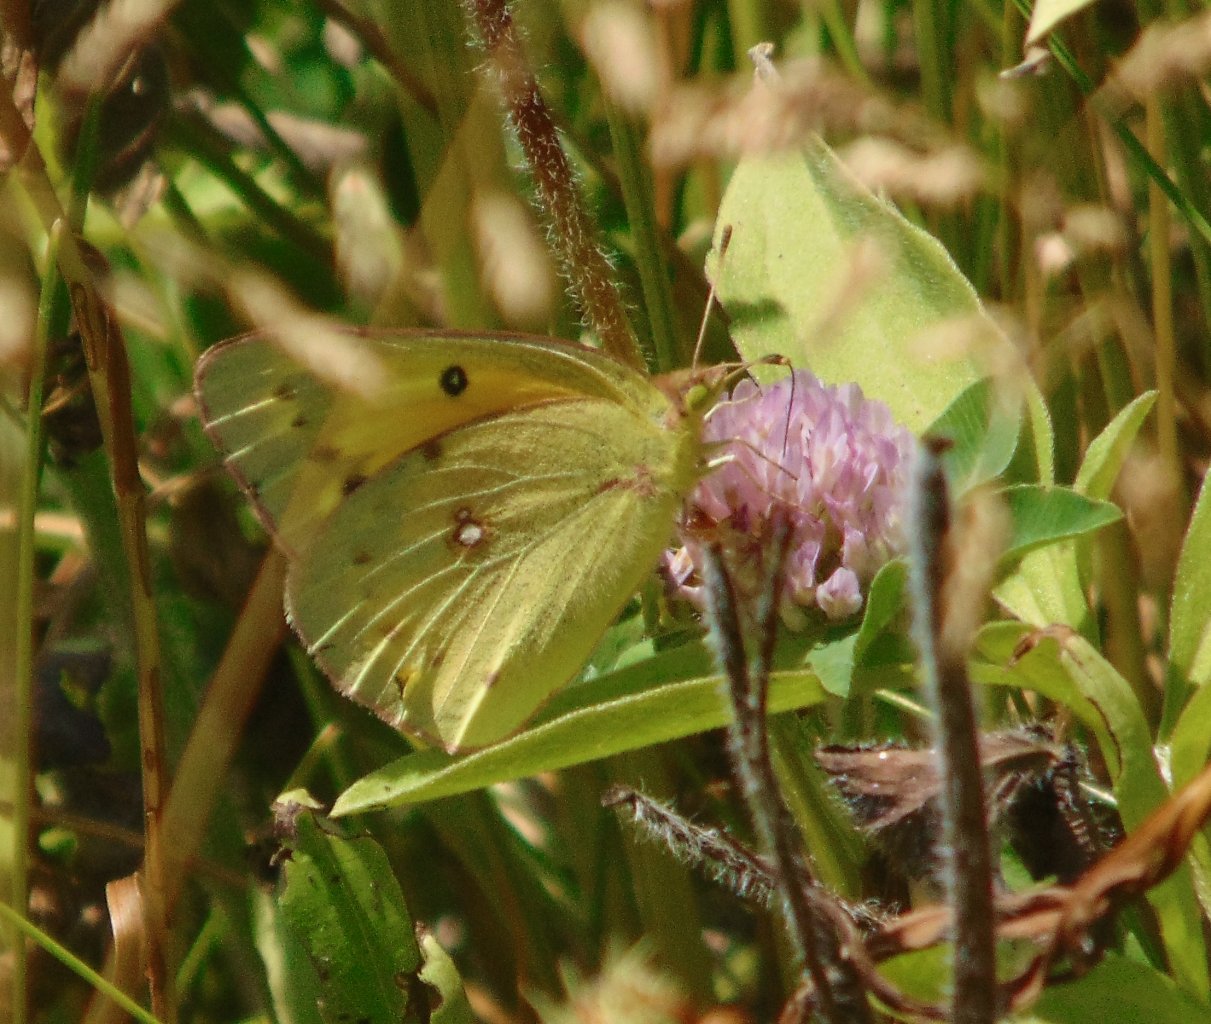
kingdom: Animalia
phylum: Arthropoda
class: Insecta
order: Lepidoptera
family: Pieridae
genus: Colias
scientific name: Colias eurytheme
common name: Orange Sulphur
